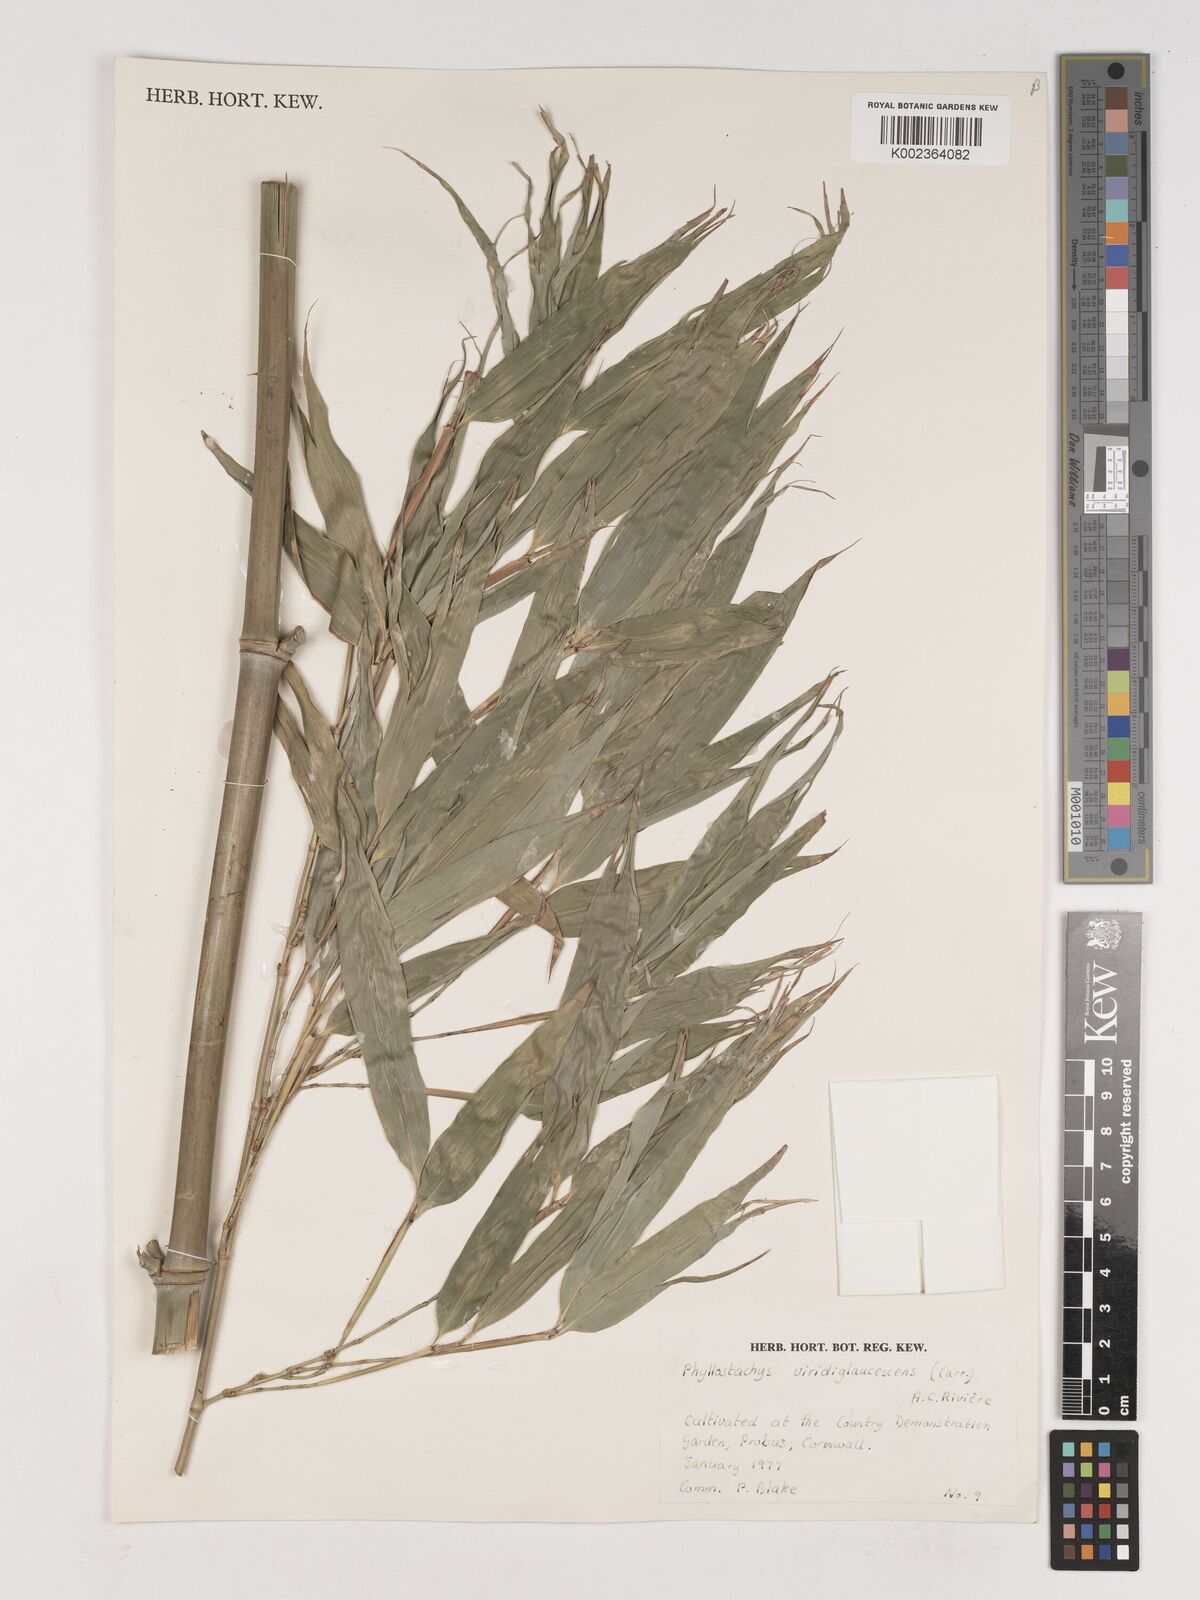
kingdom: Plantae
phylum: Tracheophyta
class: Liliopsida
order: Poales
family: Poaceae
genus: Phyllostachys
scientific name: Phyllostachys viridiglaucescens
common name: Greenwax golden bamboo
